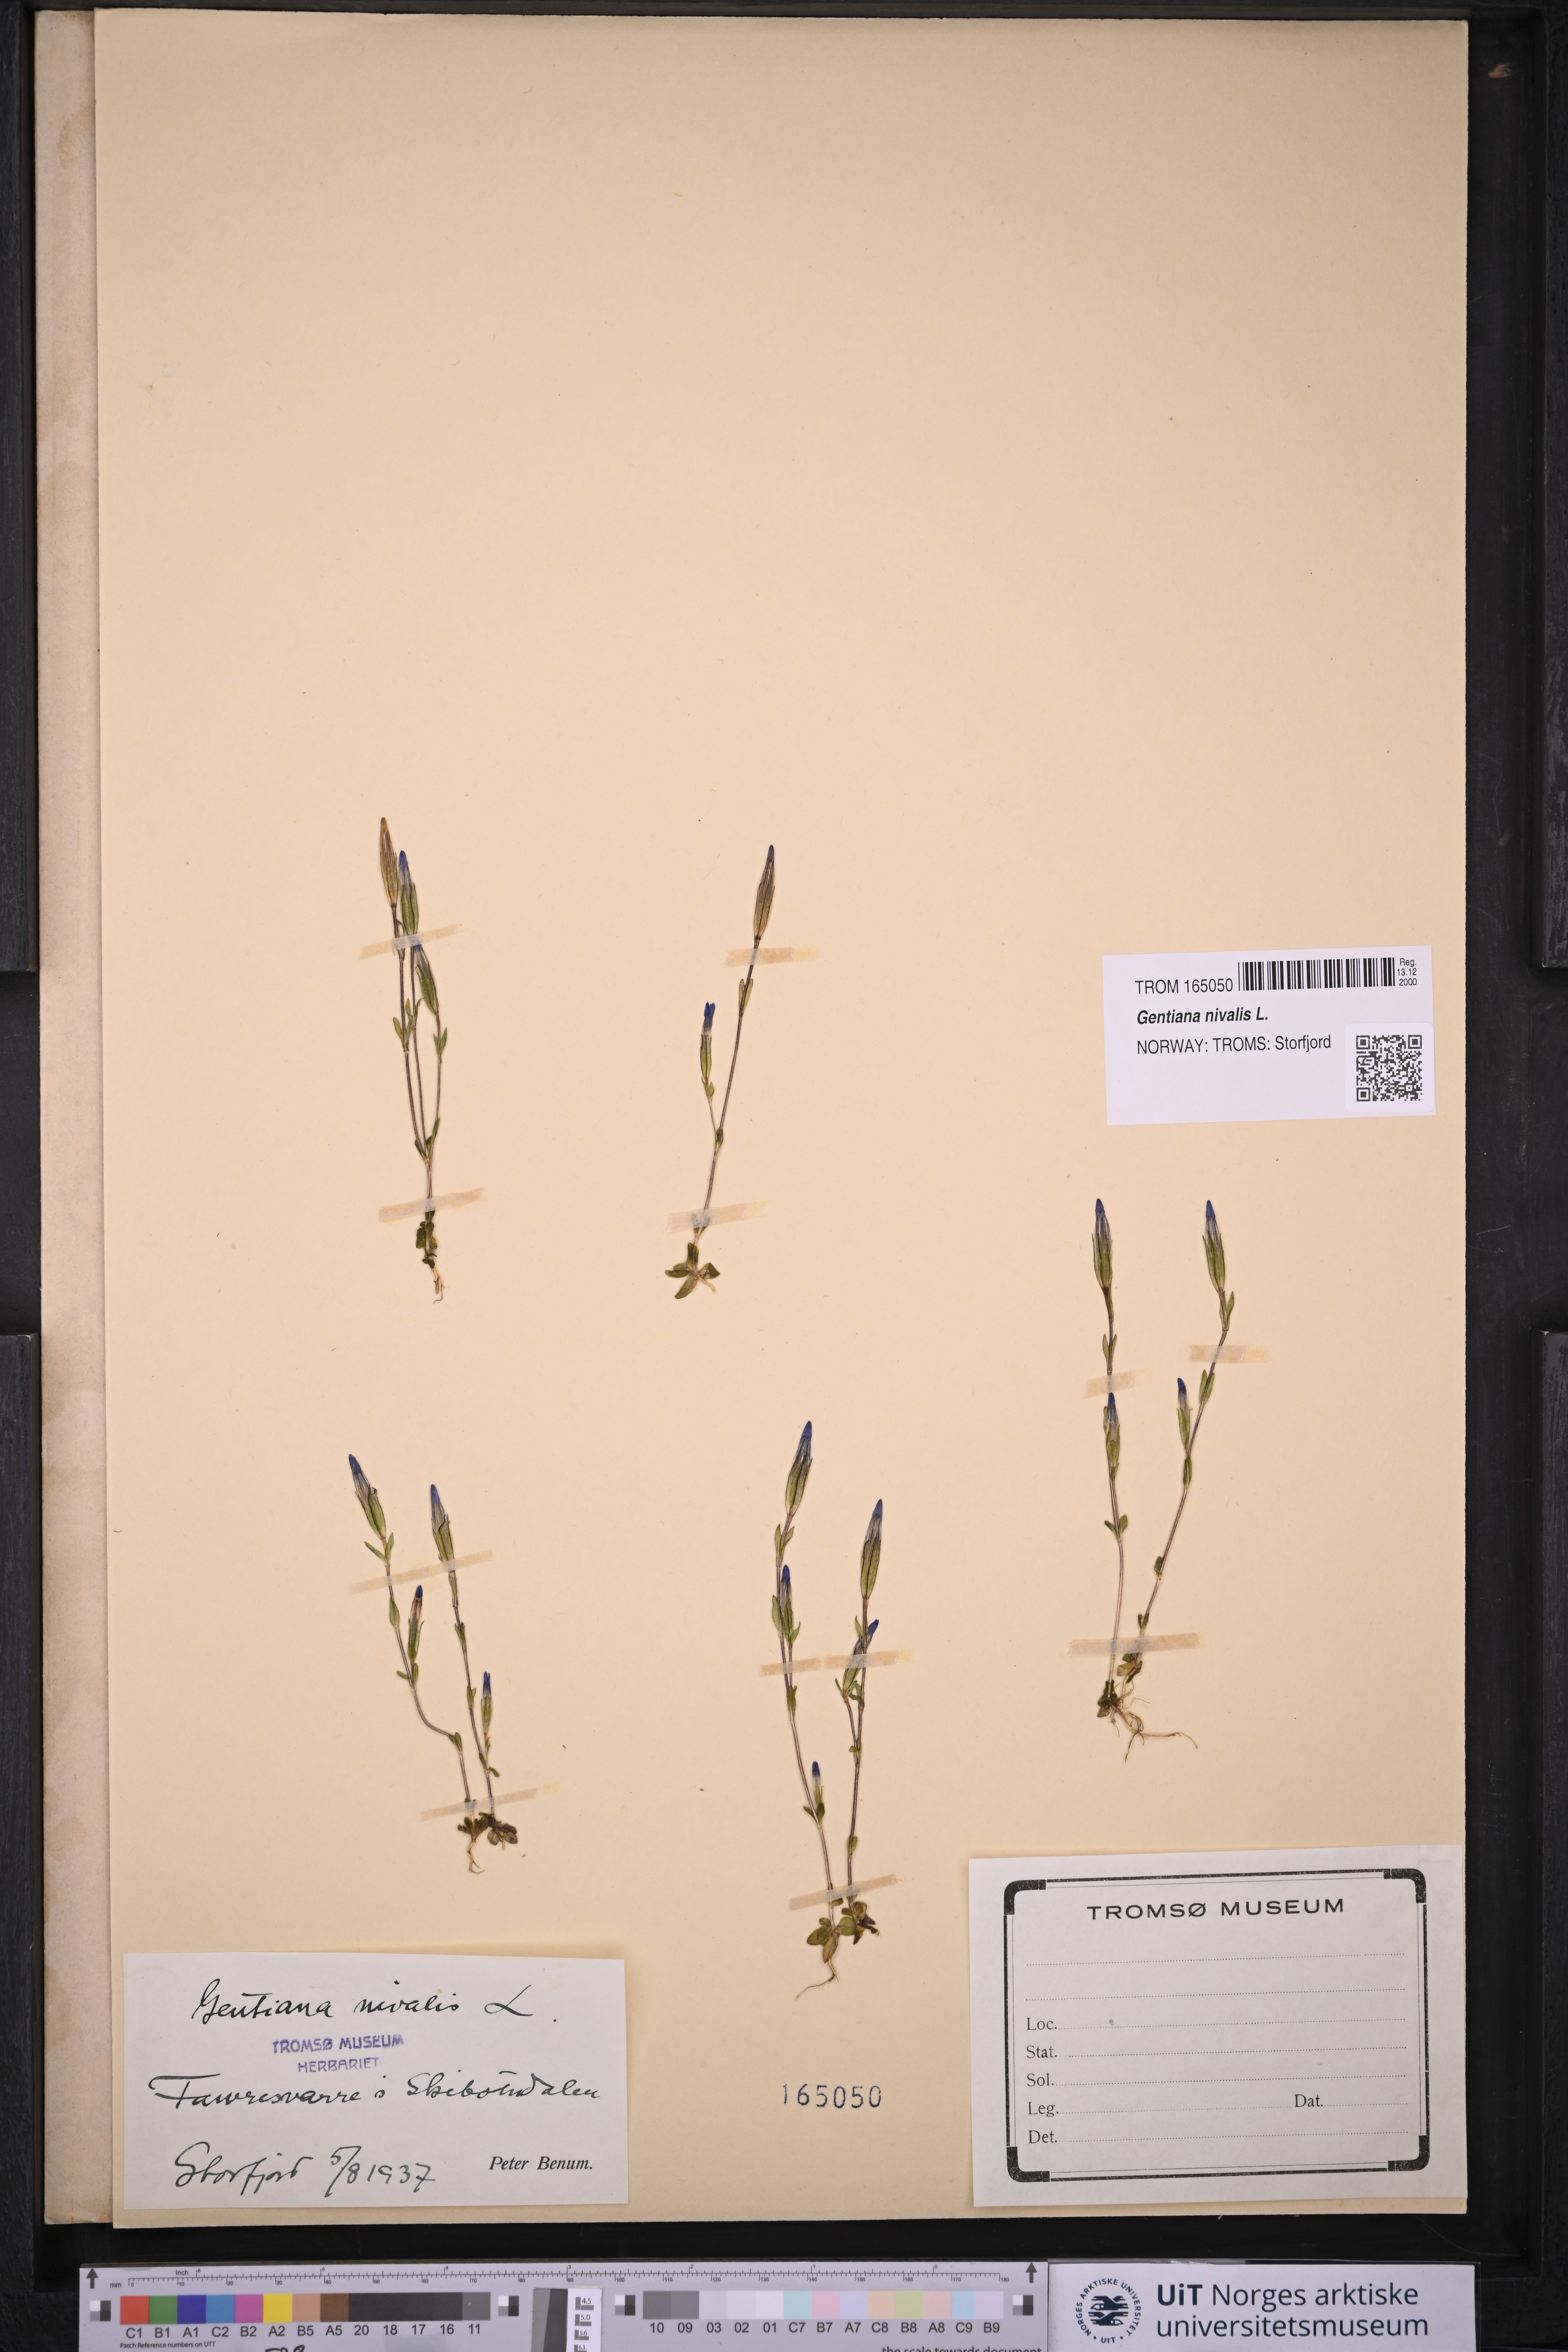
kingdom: Plantae
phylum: Tracheophyta
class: Magnoliopsida
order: Gentianales
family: Gentianaceae
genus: Gentiana
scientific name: Gentiana nivalis
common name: Alpine gentian
